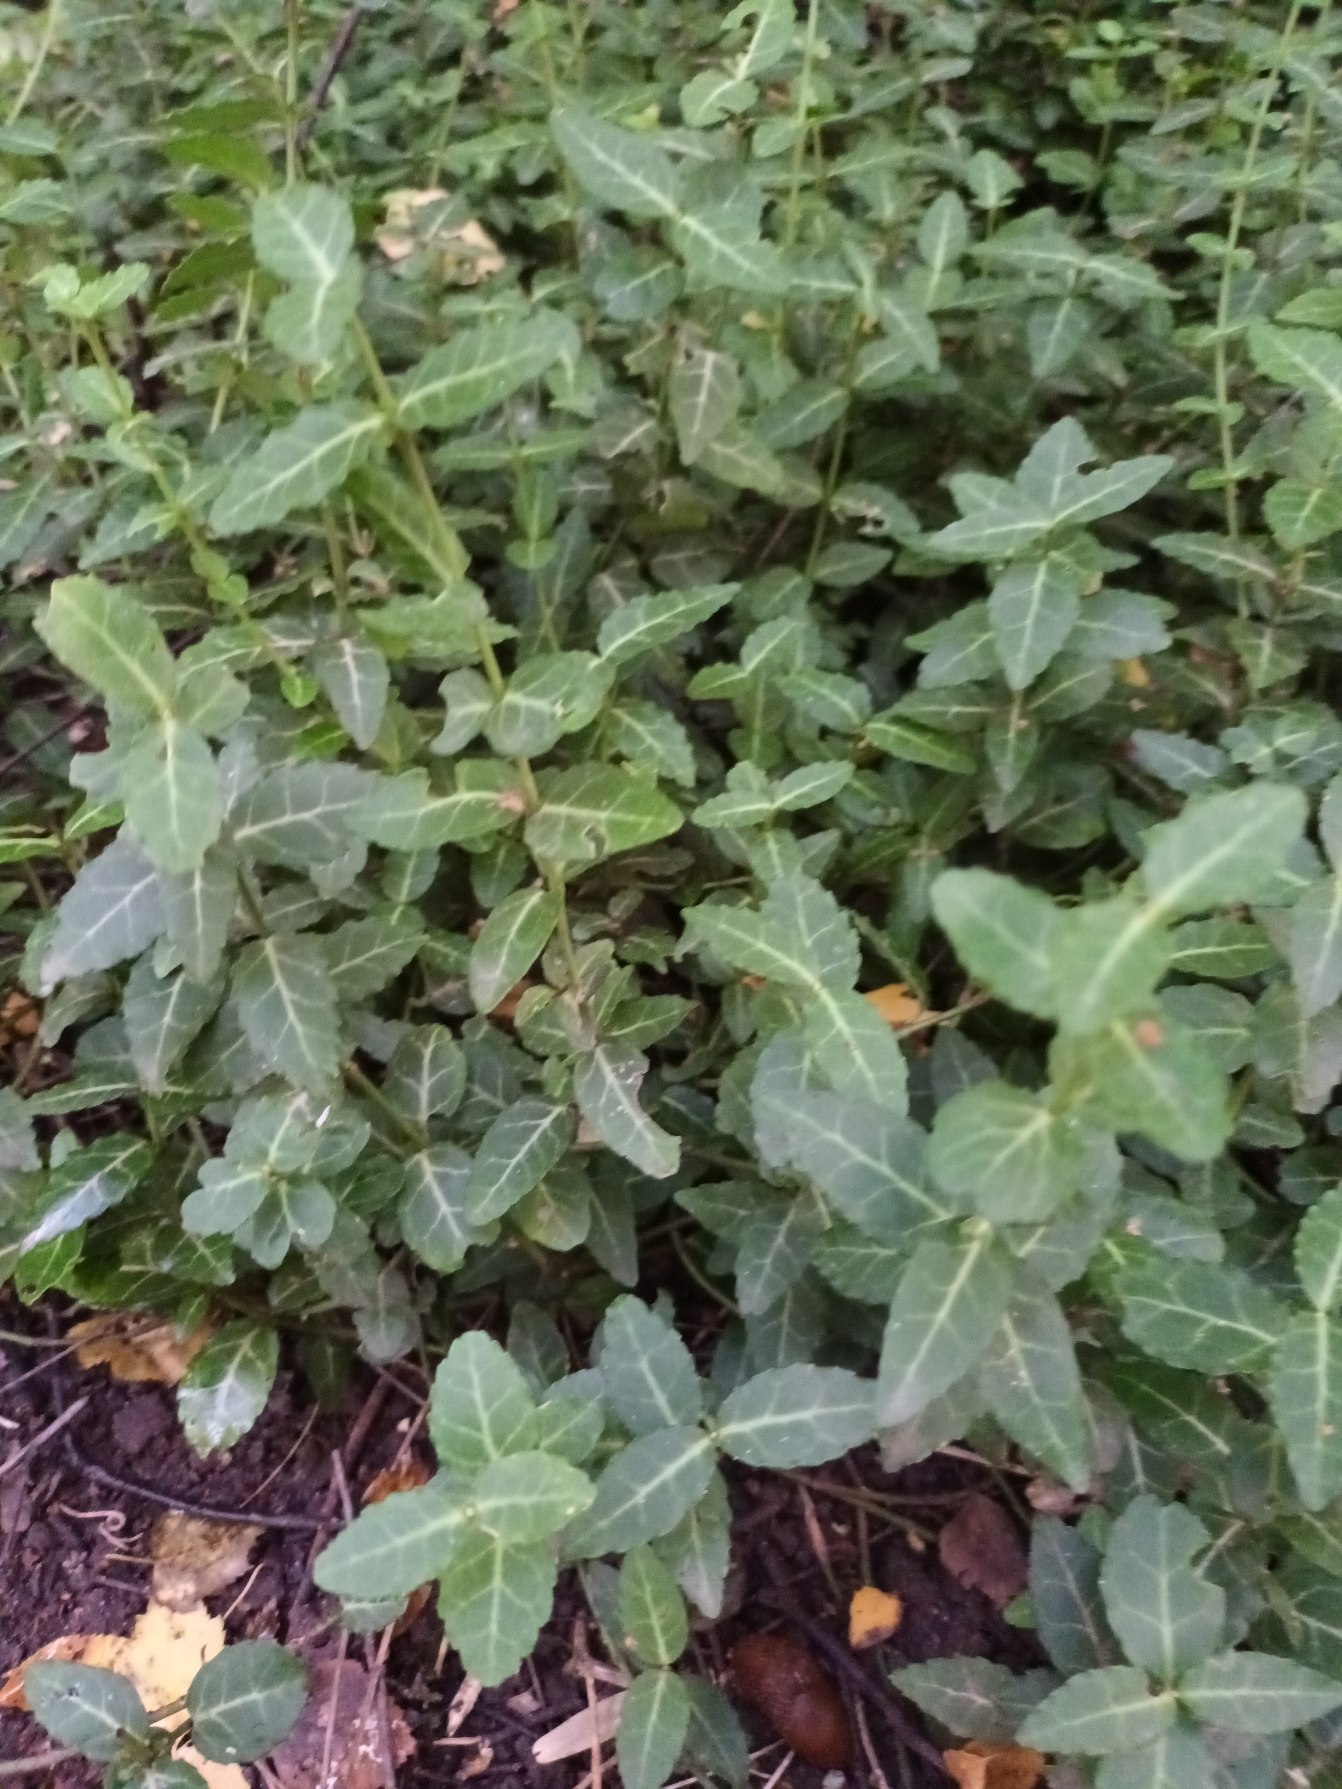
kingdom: Plantae
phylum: Tracheophyta
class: Magnoliopsida
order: Celastrales
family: Celastraceae
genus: Euonymus
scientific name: Euonymus fortunei
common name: Krybende benved
